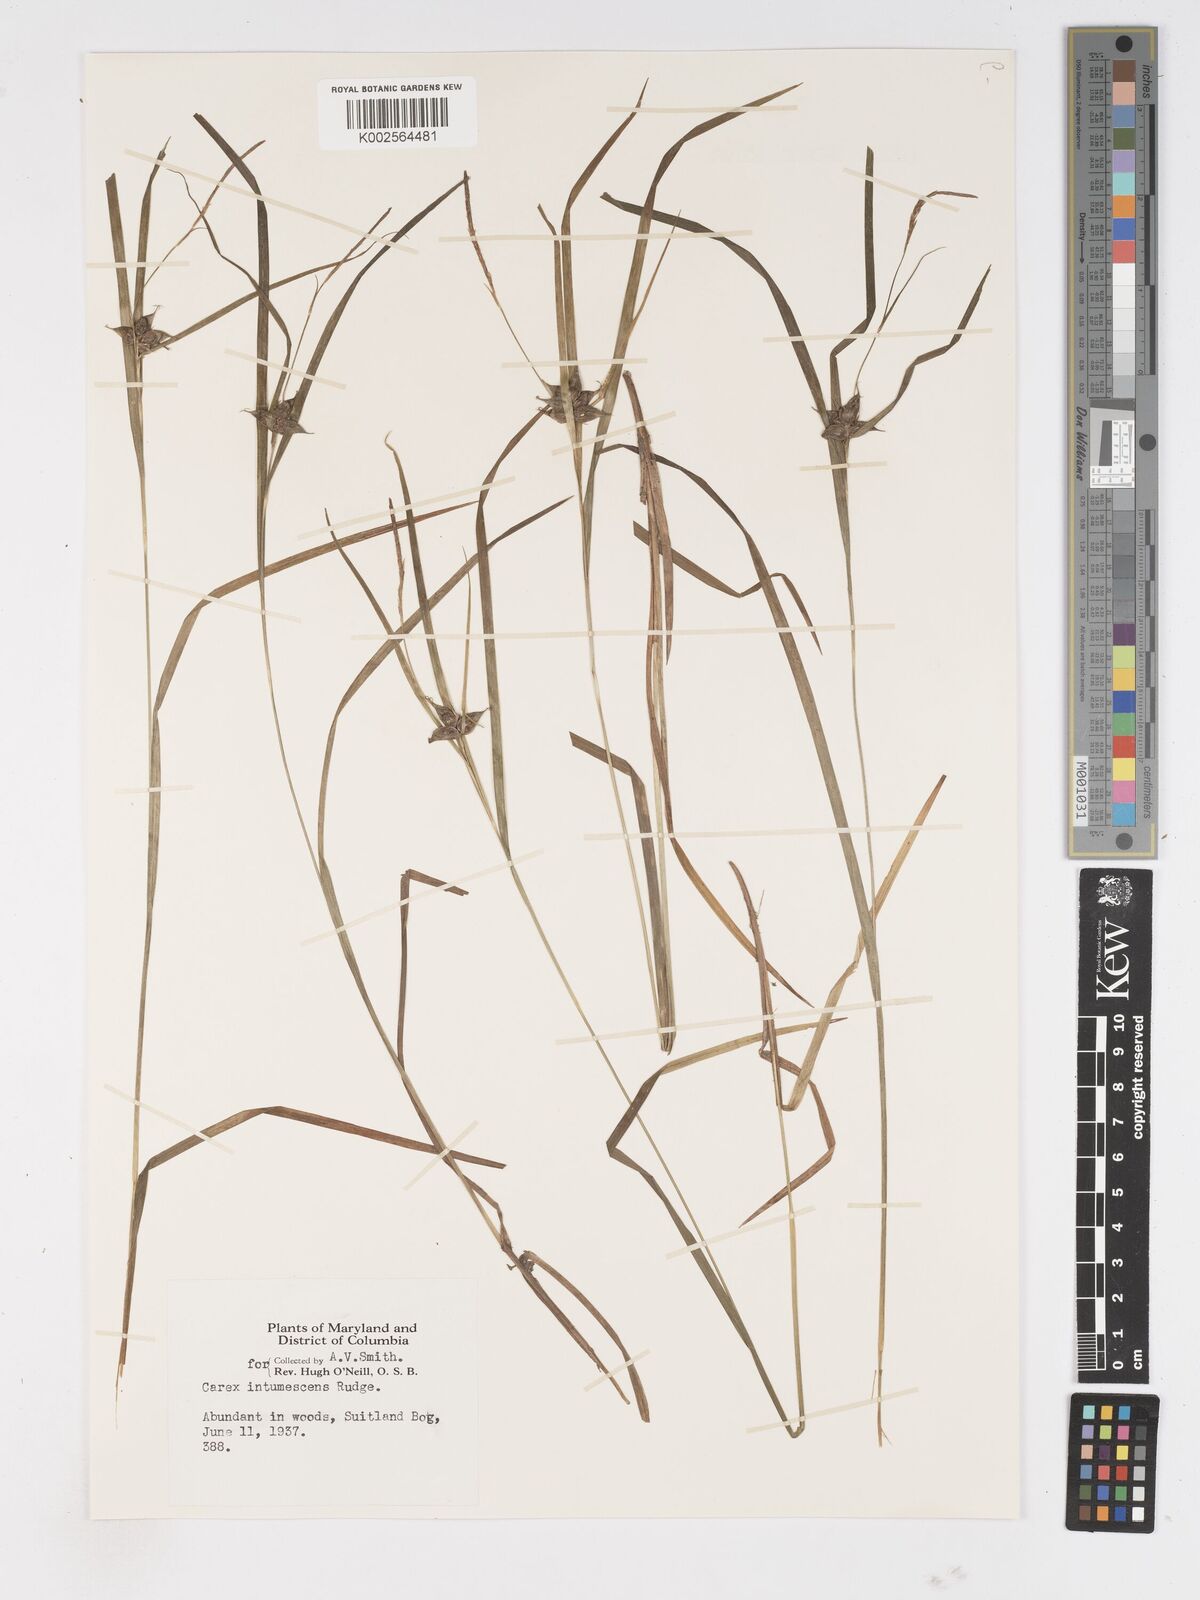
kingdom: Plantae
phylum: Tracheophyta
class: Liliopsida
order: Poales
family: Cyperaceae
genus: Carex
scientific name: Carex intumescens
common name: Greater bladder sedge
